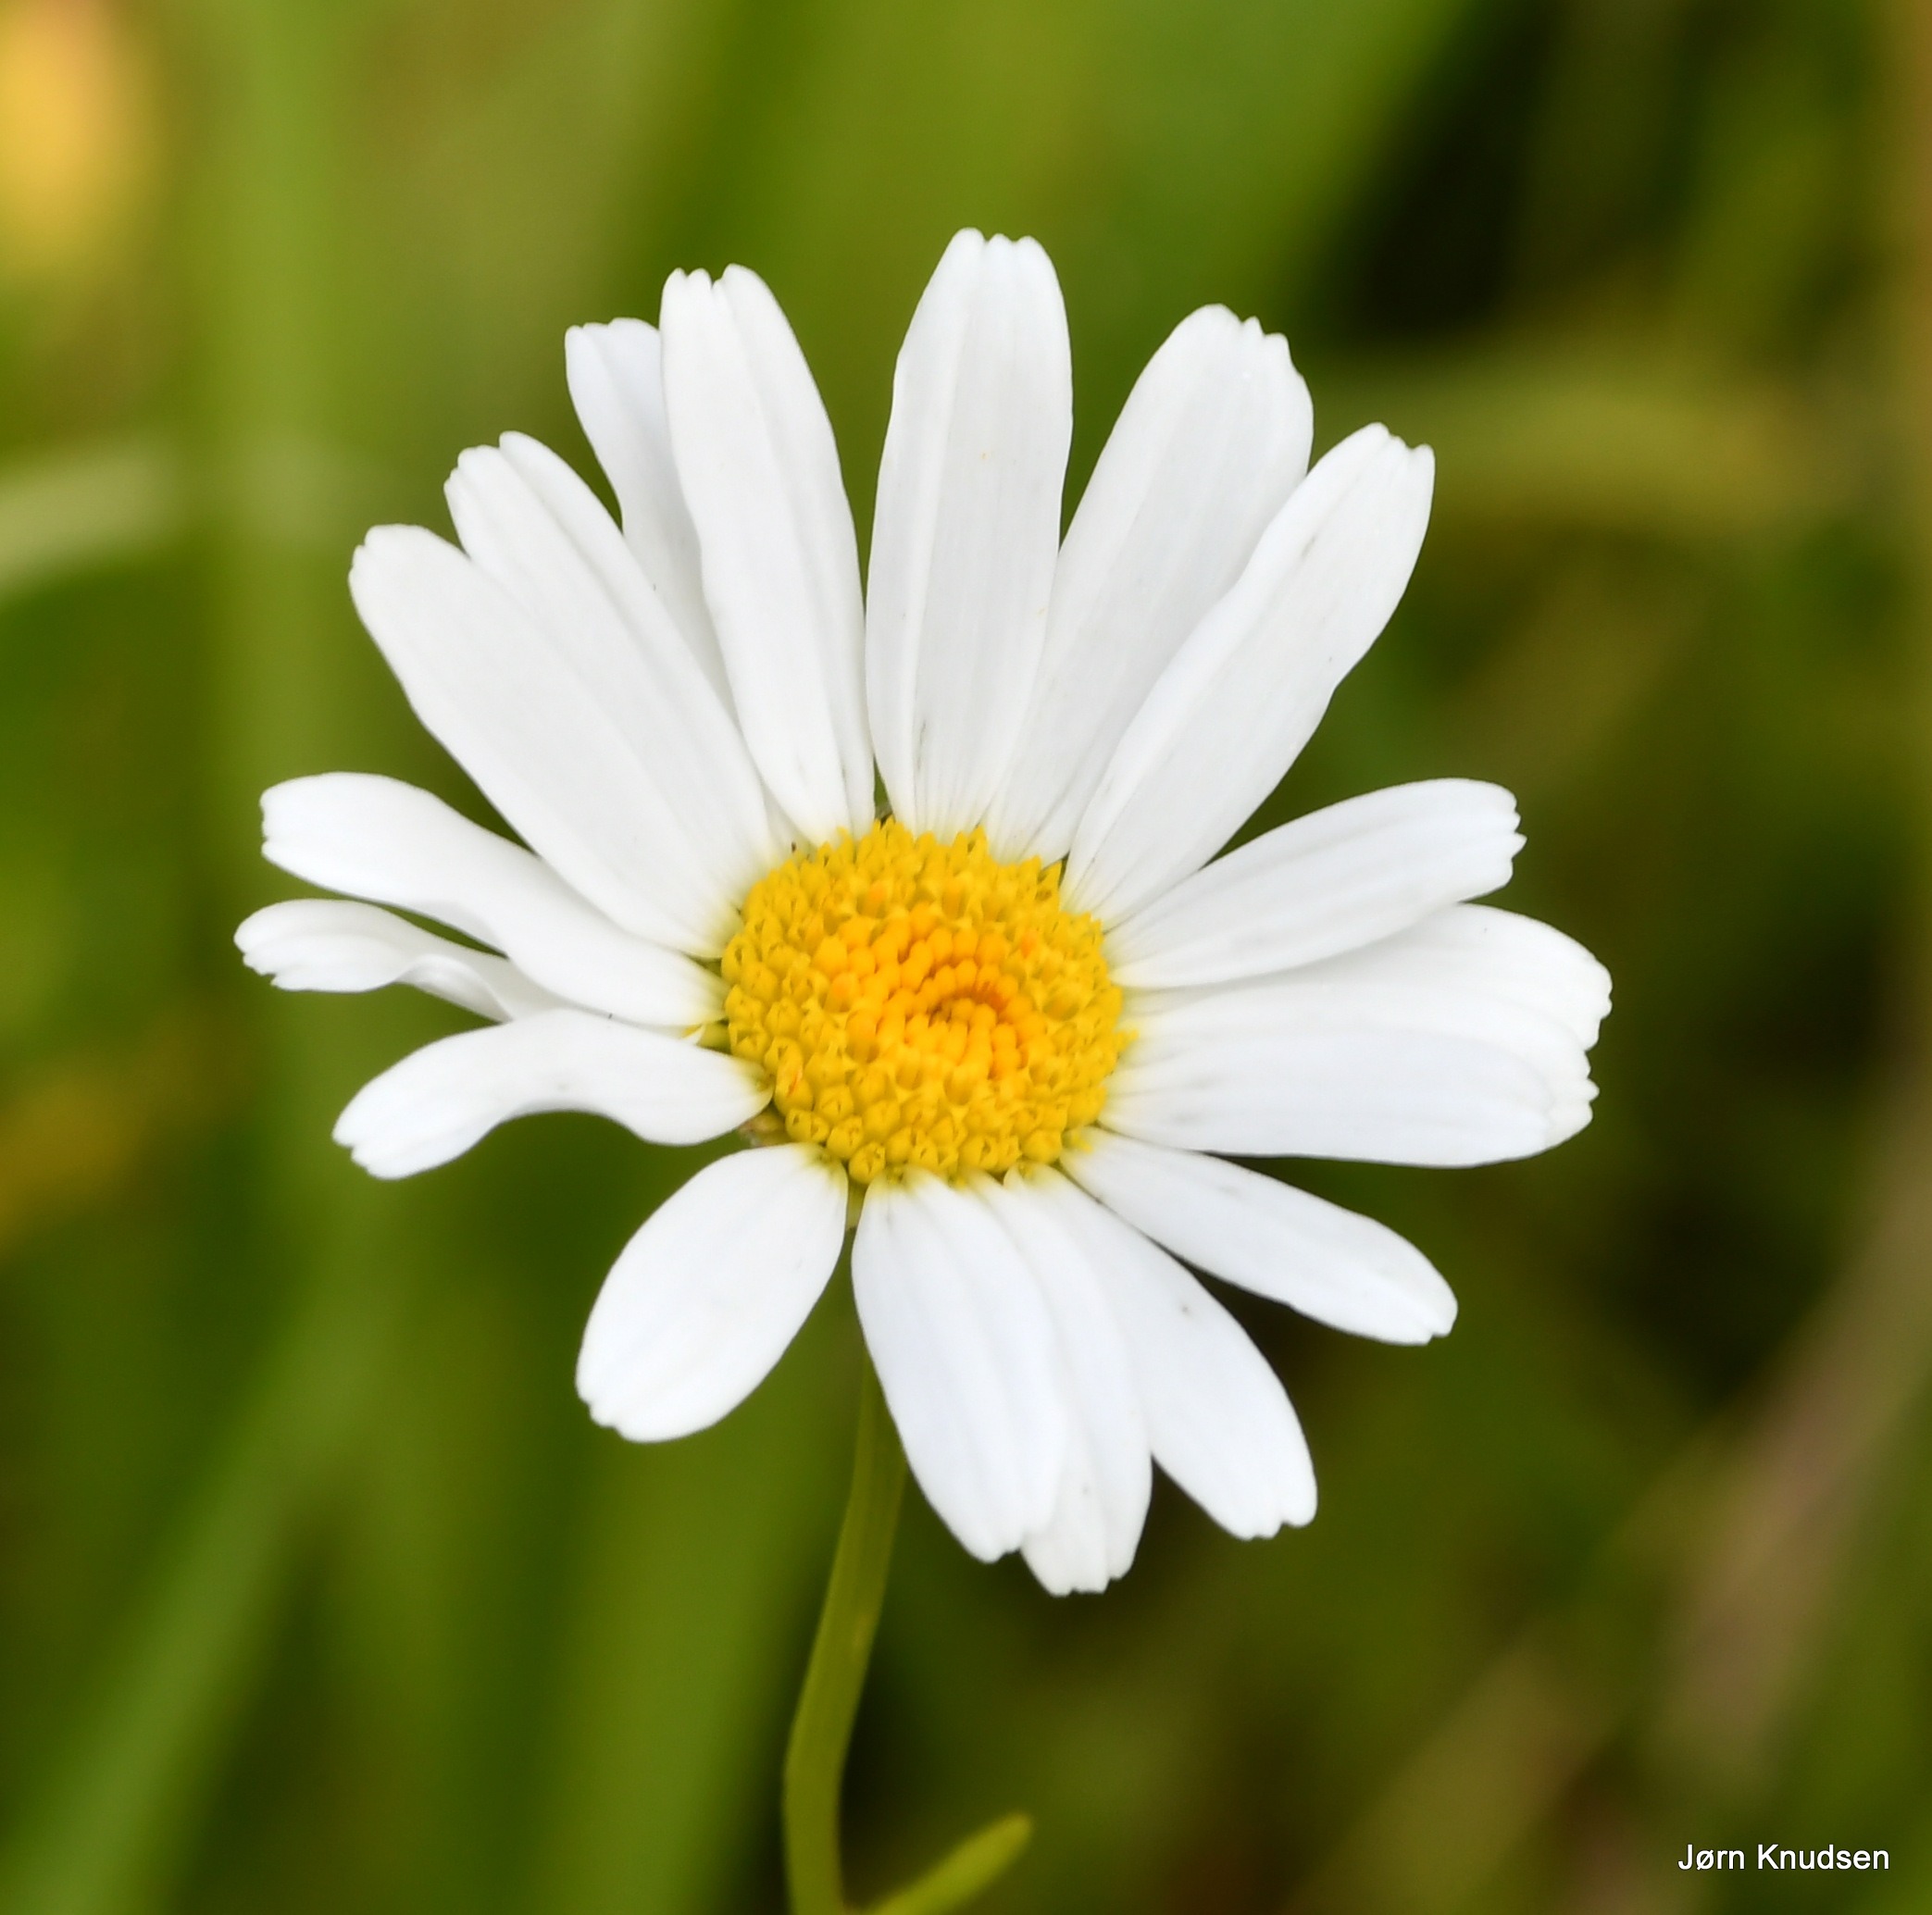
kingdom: Plantae
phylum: Tracheophyta
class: Magnoliopsida
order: Asterales
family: Asteraceae
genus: Leucanthemum
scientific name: Leucanthemum vulgare
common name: Hvid okseøje
